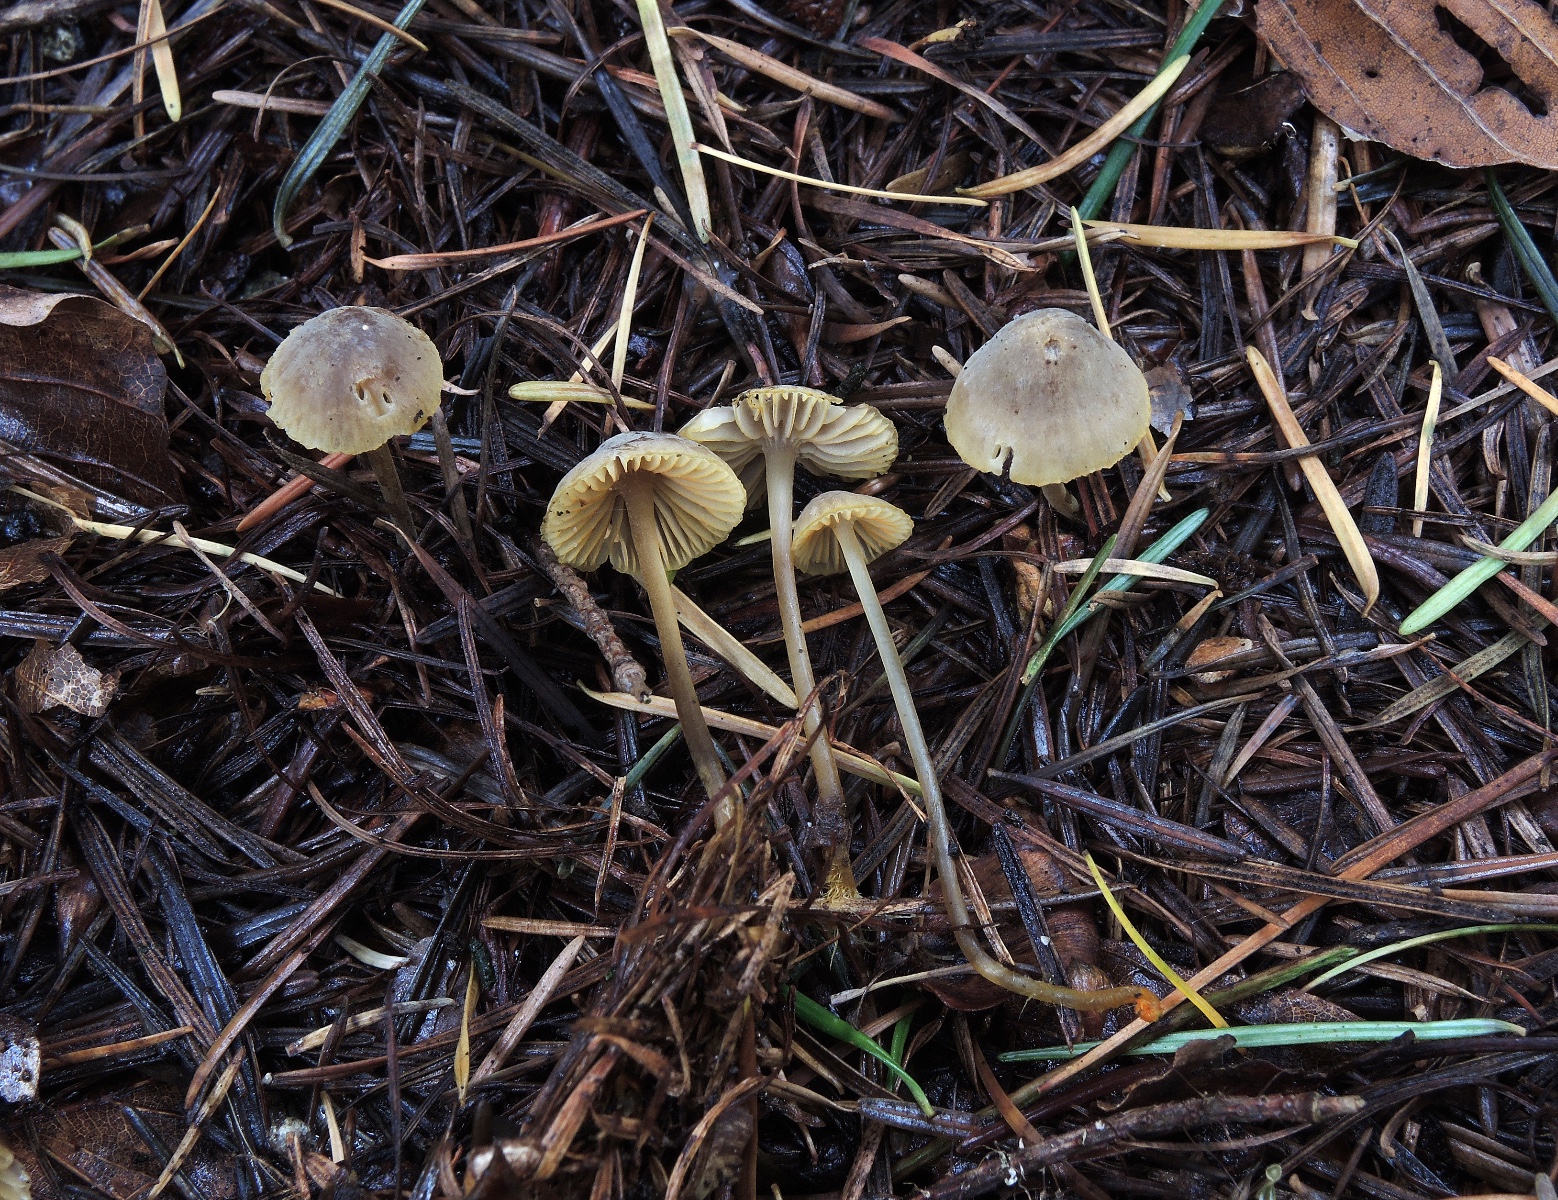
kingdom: Fungi
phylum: Basidiomycota
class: Agaricomycetes
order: Agaricales
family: Mycenaceae
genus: Mycena
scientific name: Mycena aurantiomarginata
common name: orangeægget huesvamp
